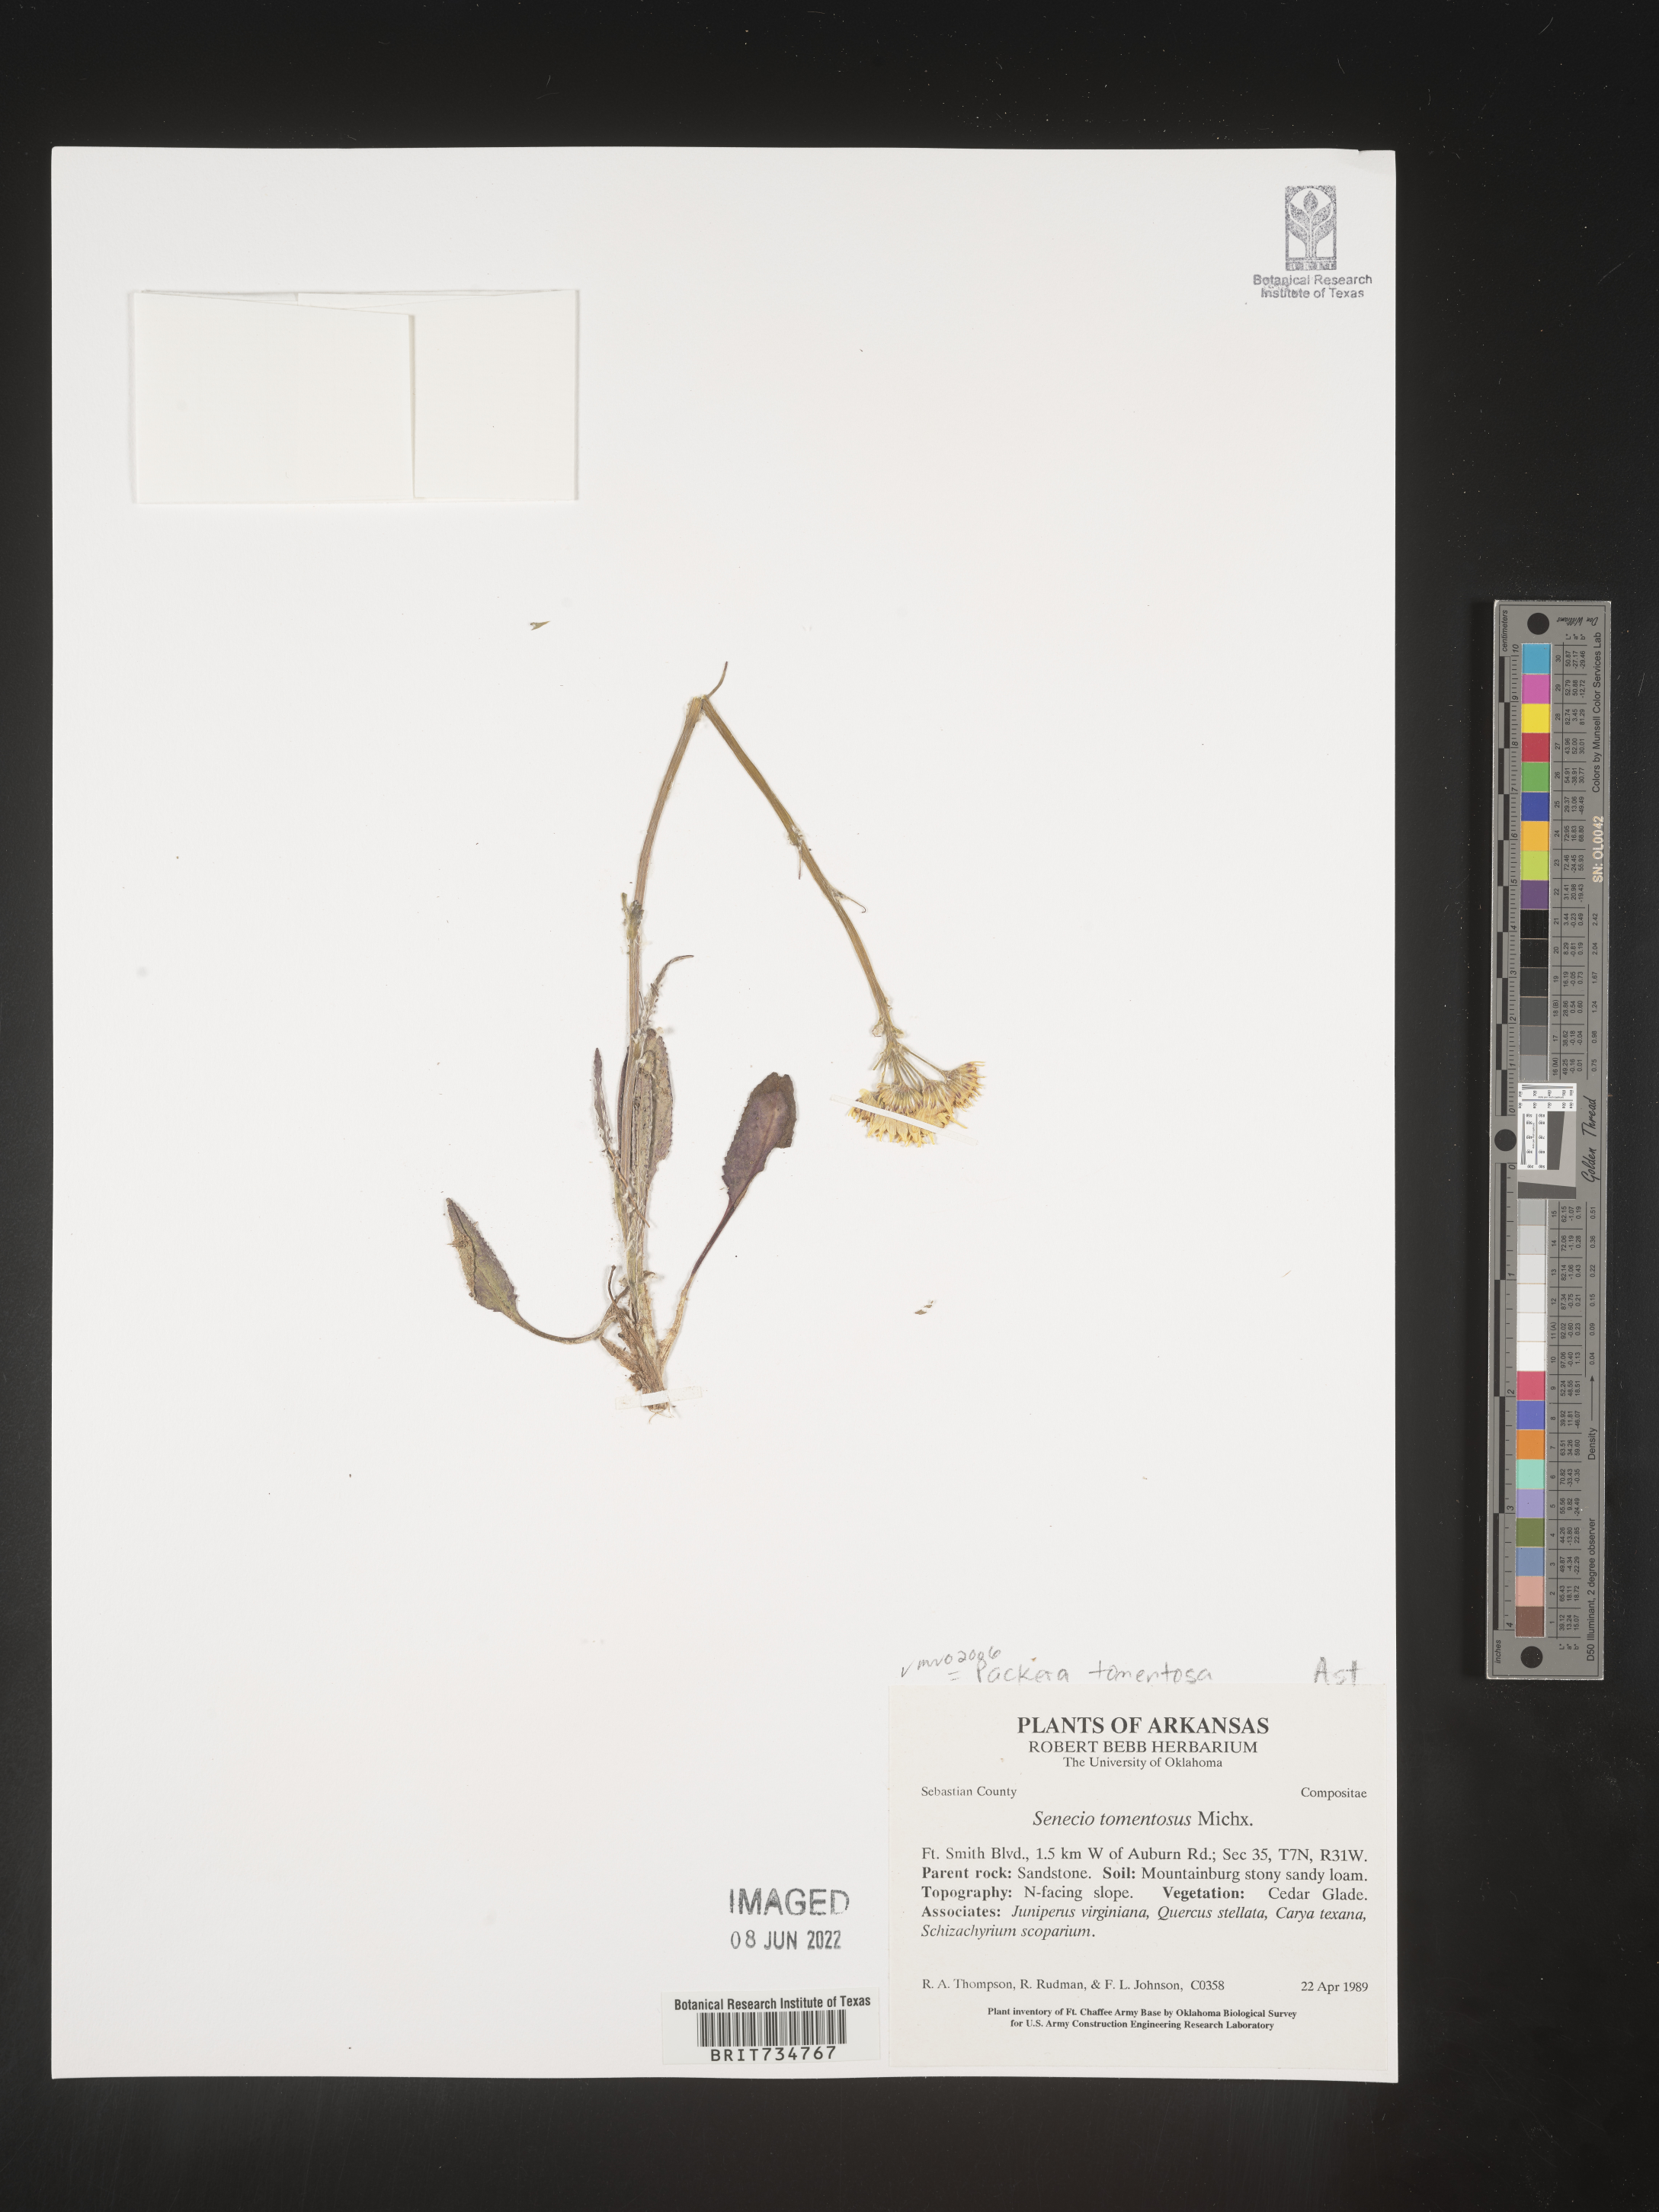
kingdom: Plantae
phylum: Tracheophyta
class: Magnoliopsida
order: Asterales
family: Asteraceae
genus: Packera
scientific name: Packera dubia
